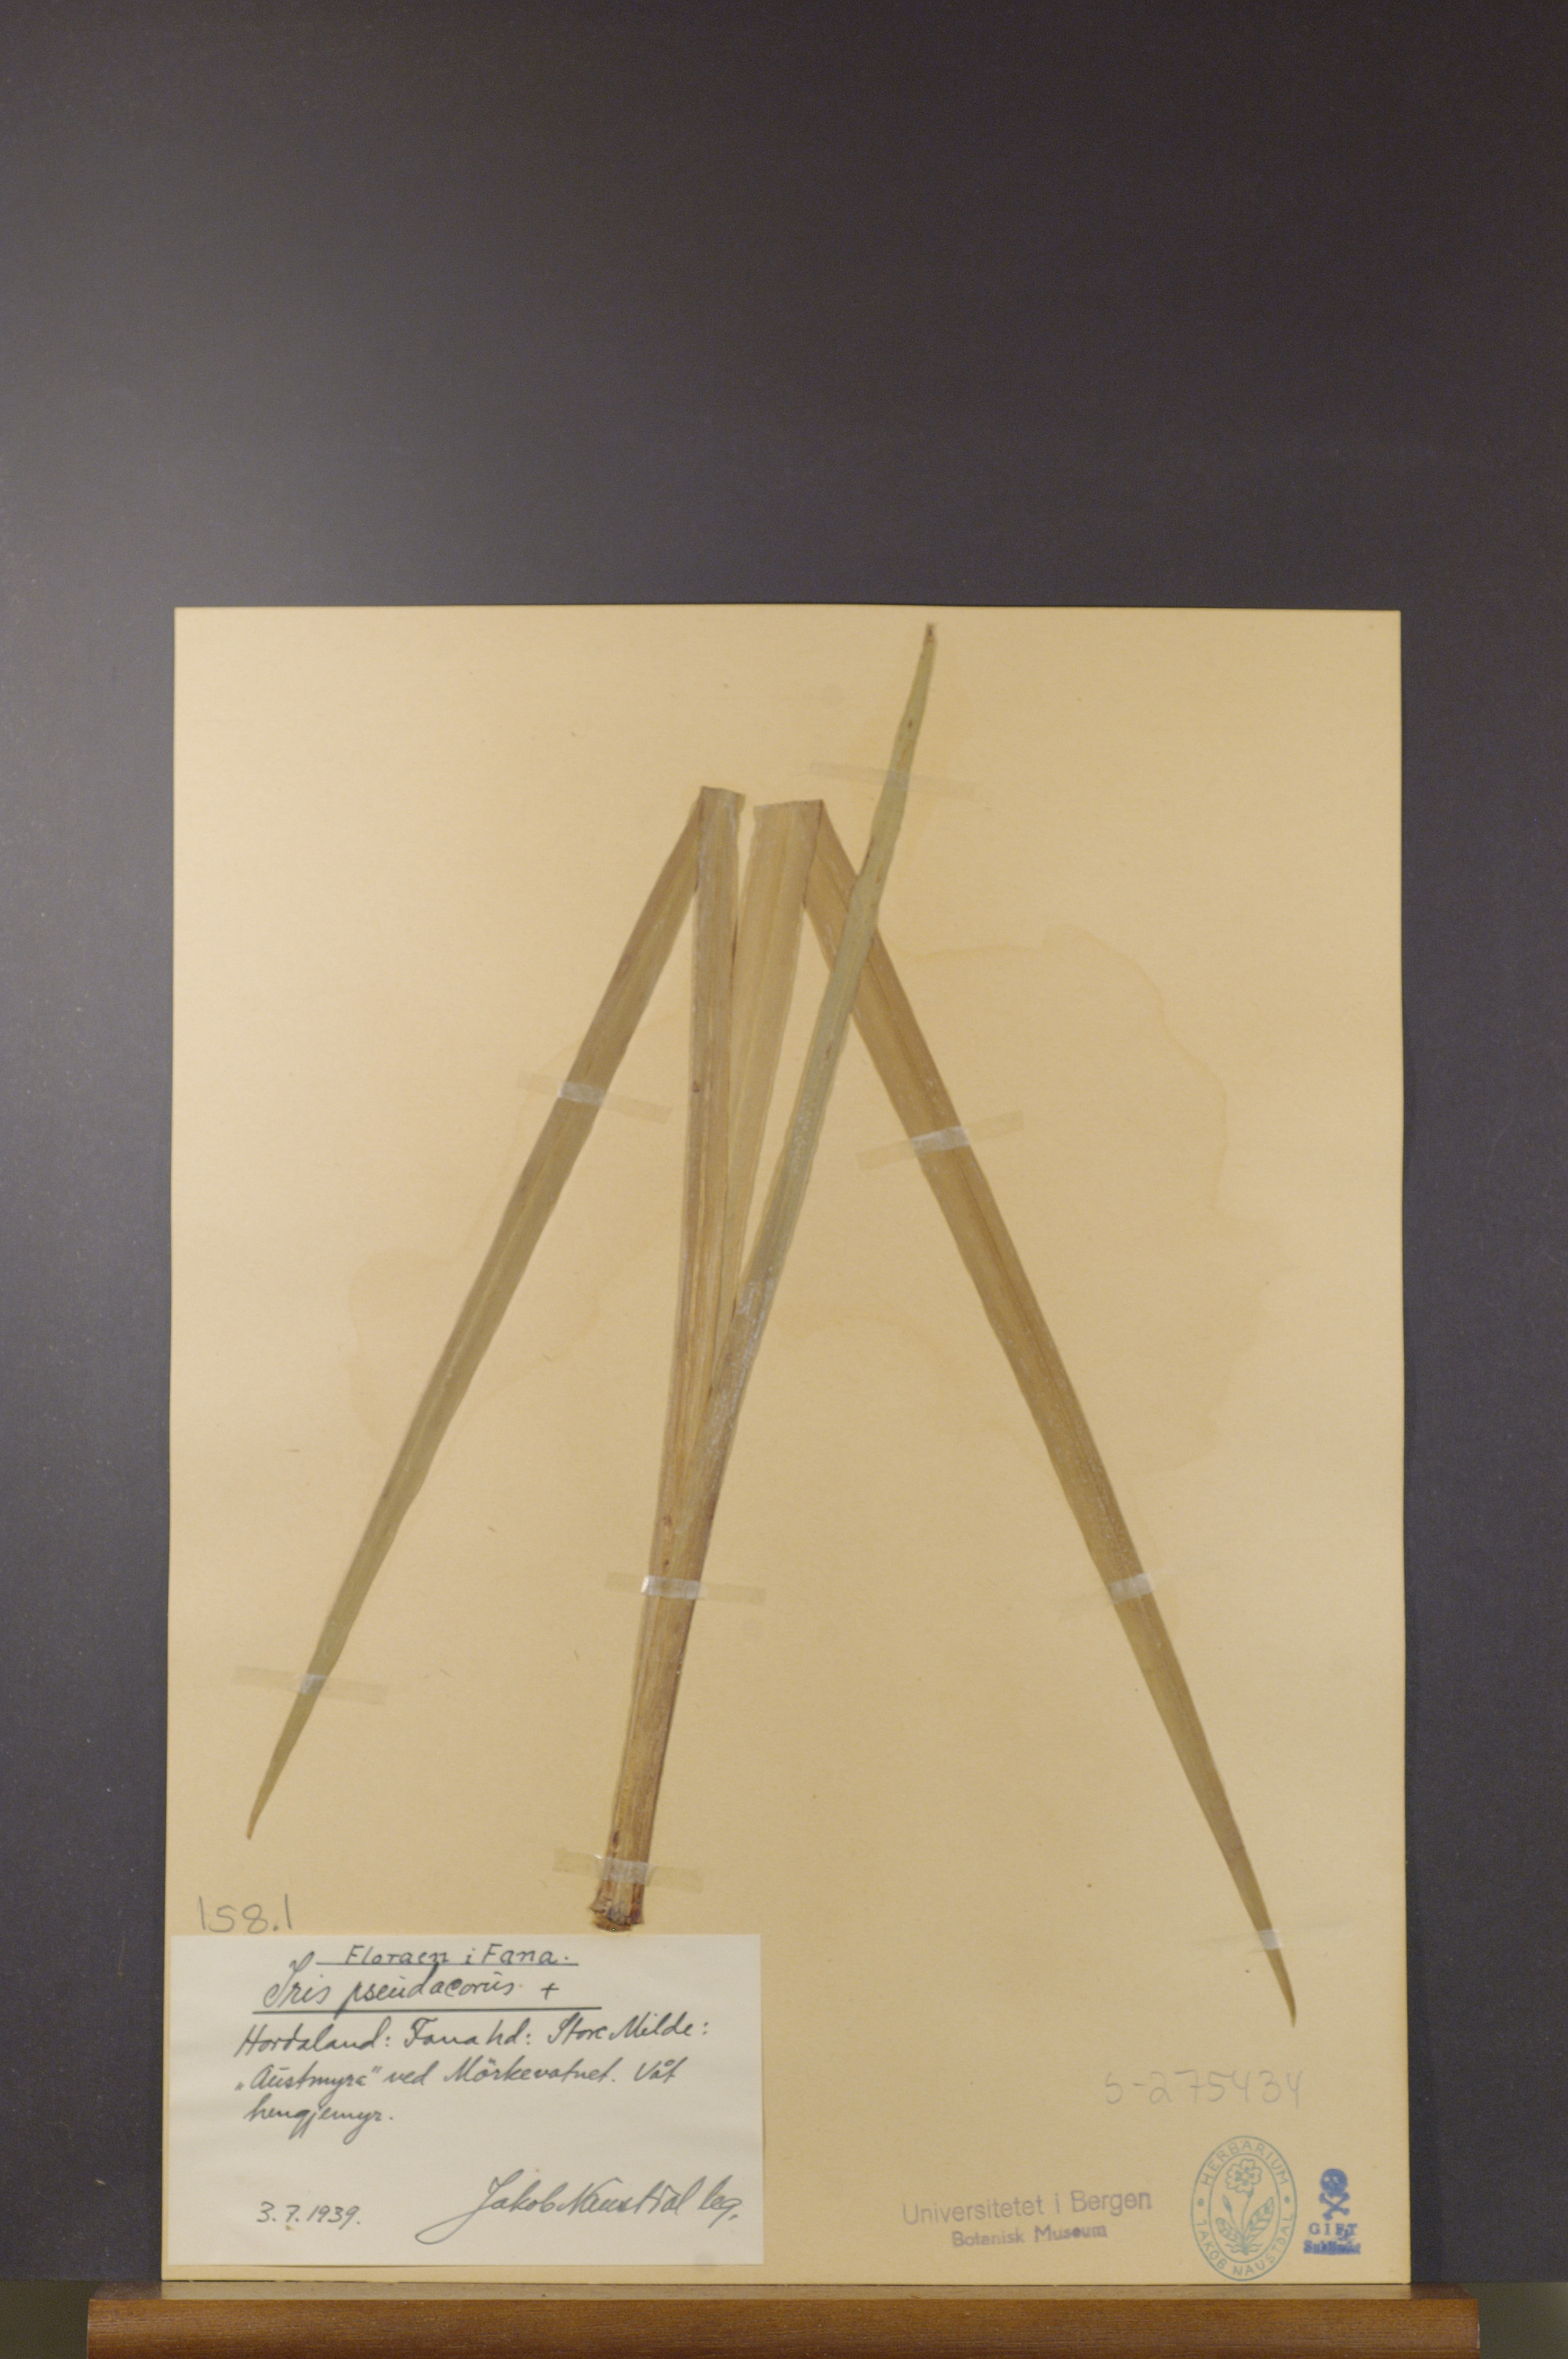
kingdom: Plantae
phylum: Tracheophyta
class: Liliopsida
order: Asparagales
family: Iridaceae
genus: Iris
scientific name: Iris pseudacorus
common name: Yellow flag
